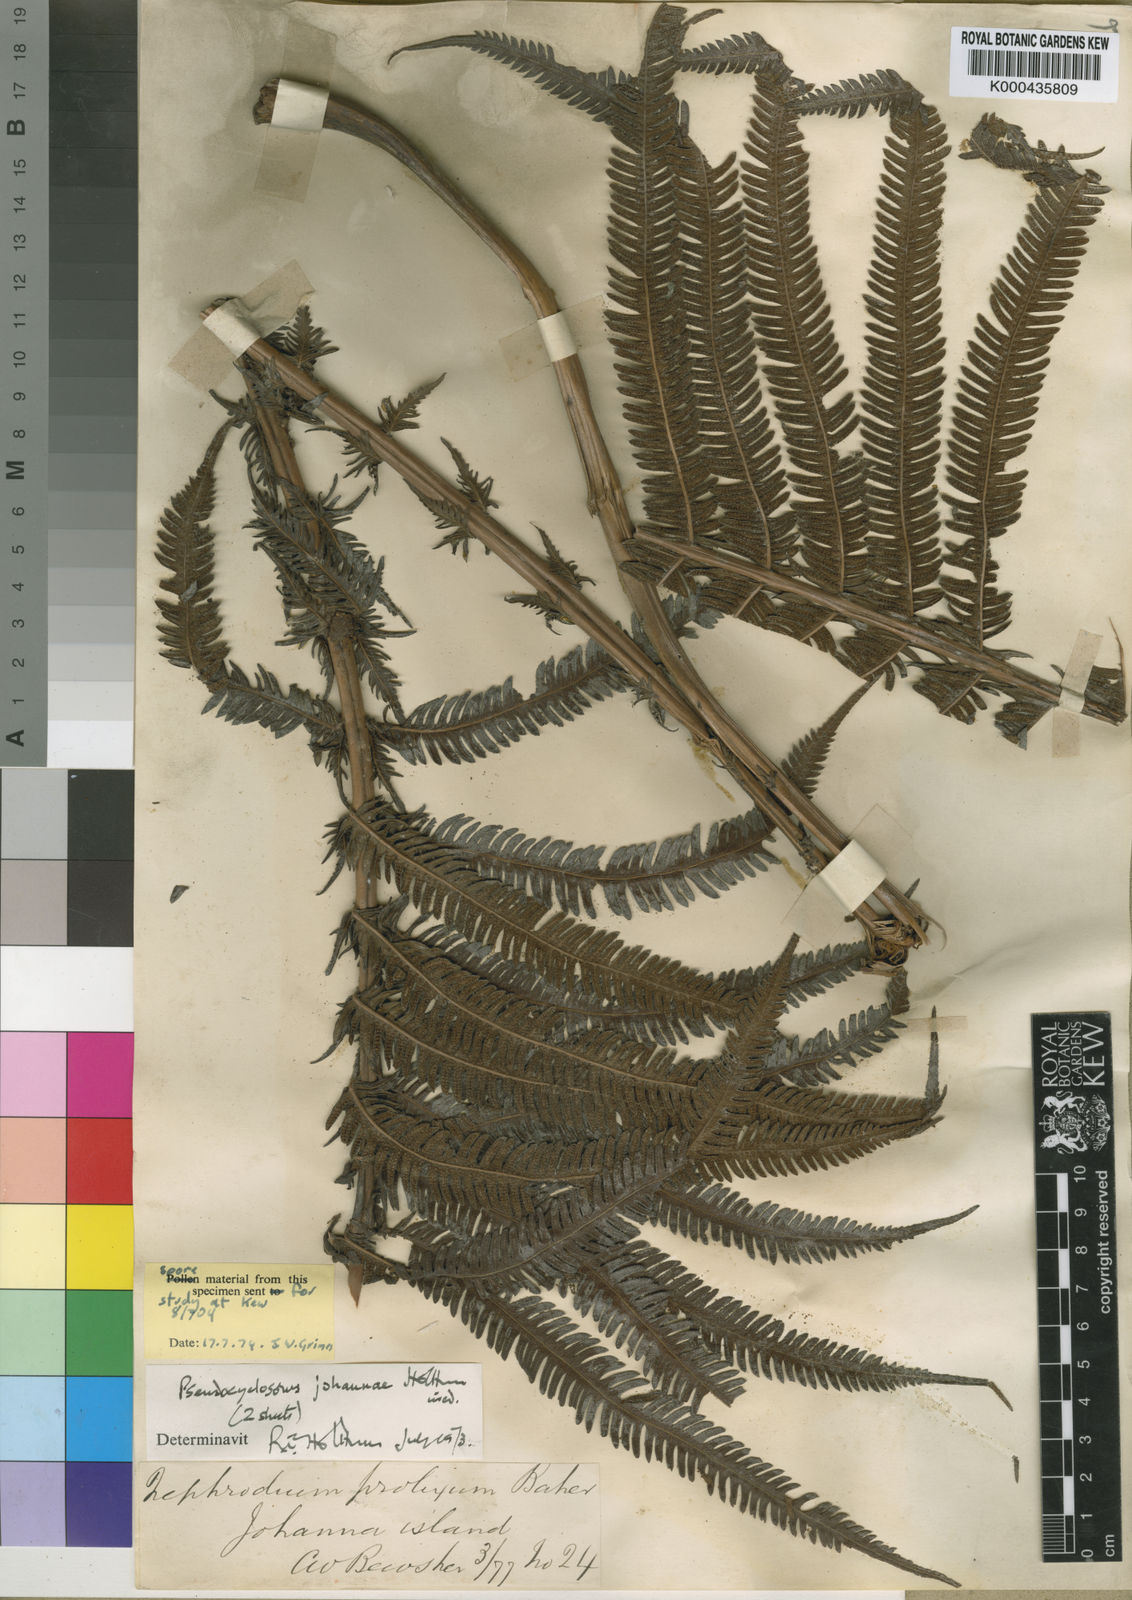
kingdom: Plantae
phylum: Tracheophyta
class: Polypodiopsida
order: Polypodiales
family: Thelypteridaceae
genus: Pseudocyclosorus
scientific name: Pseudocyclosorus johannae
